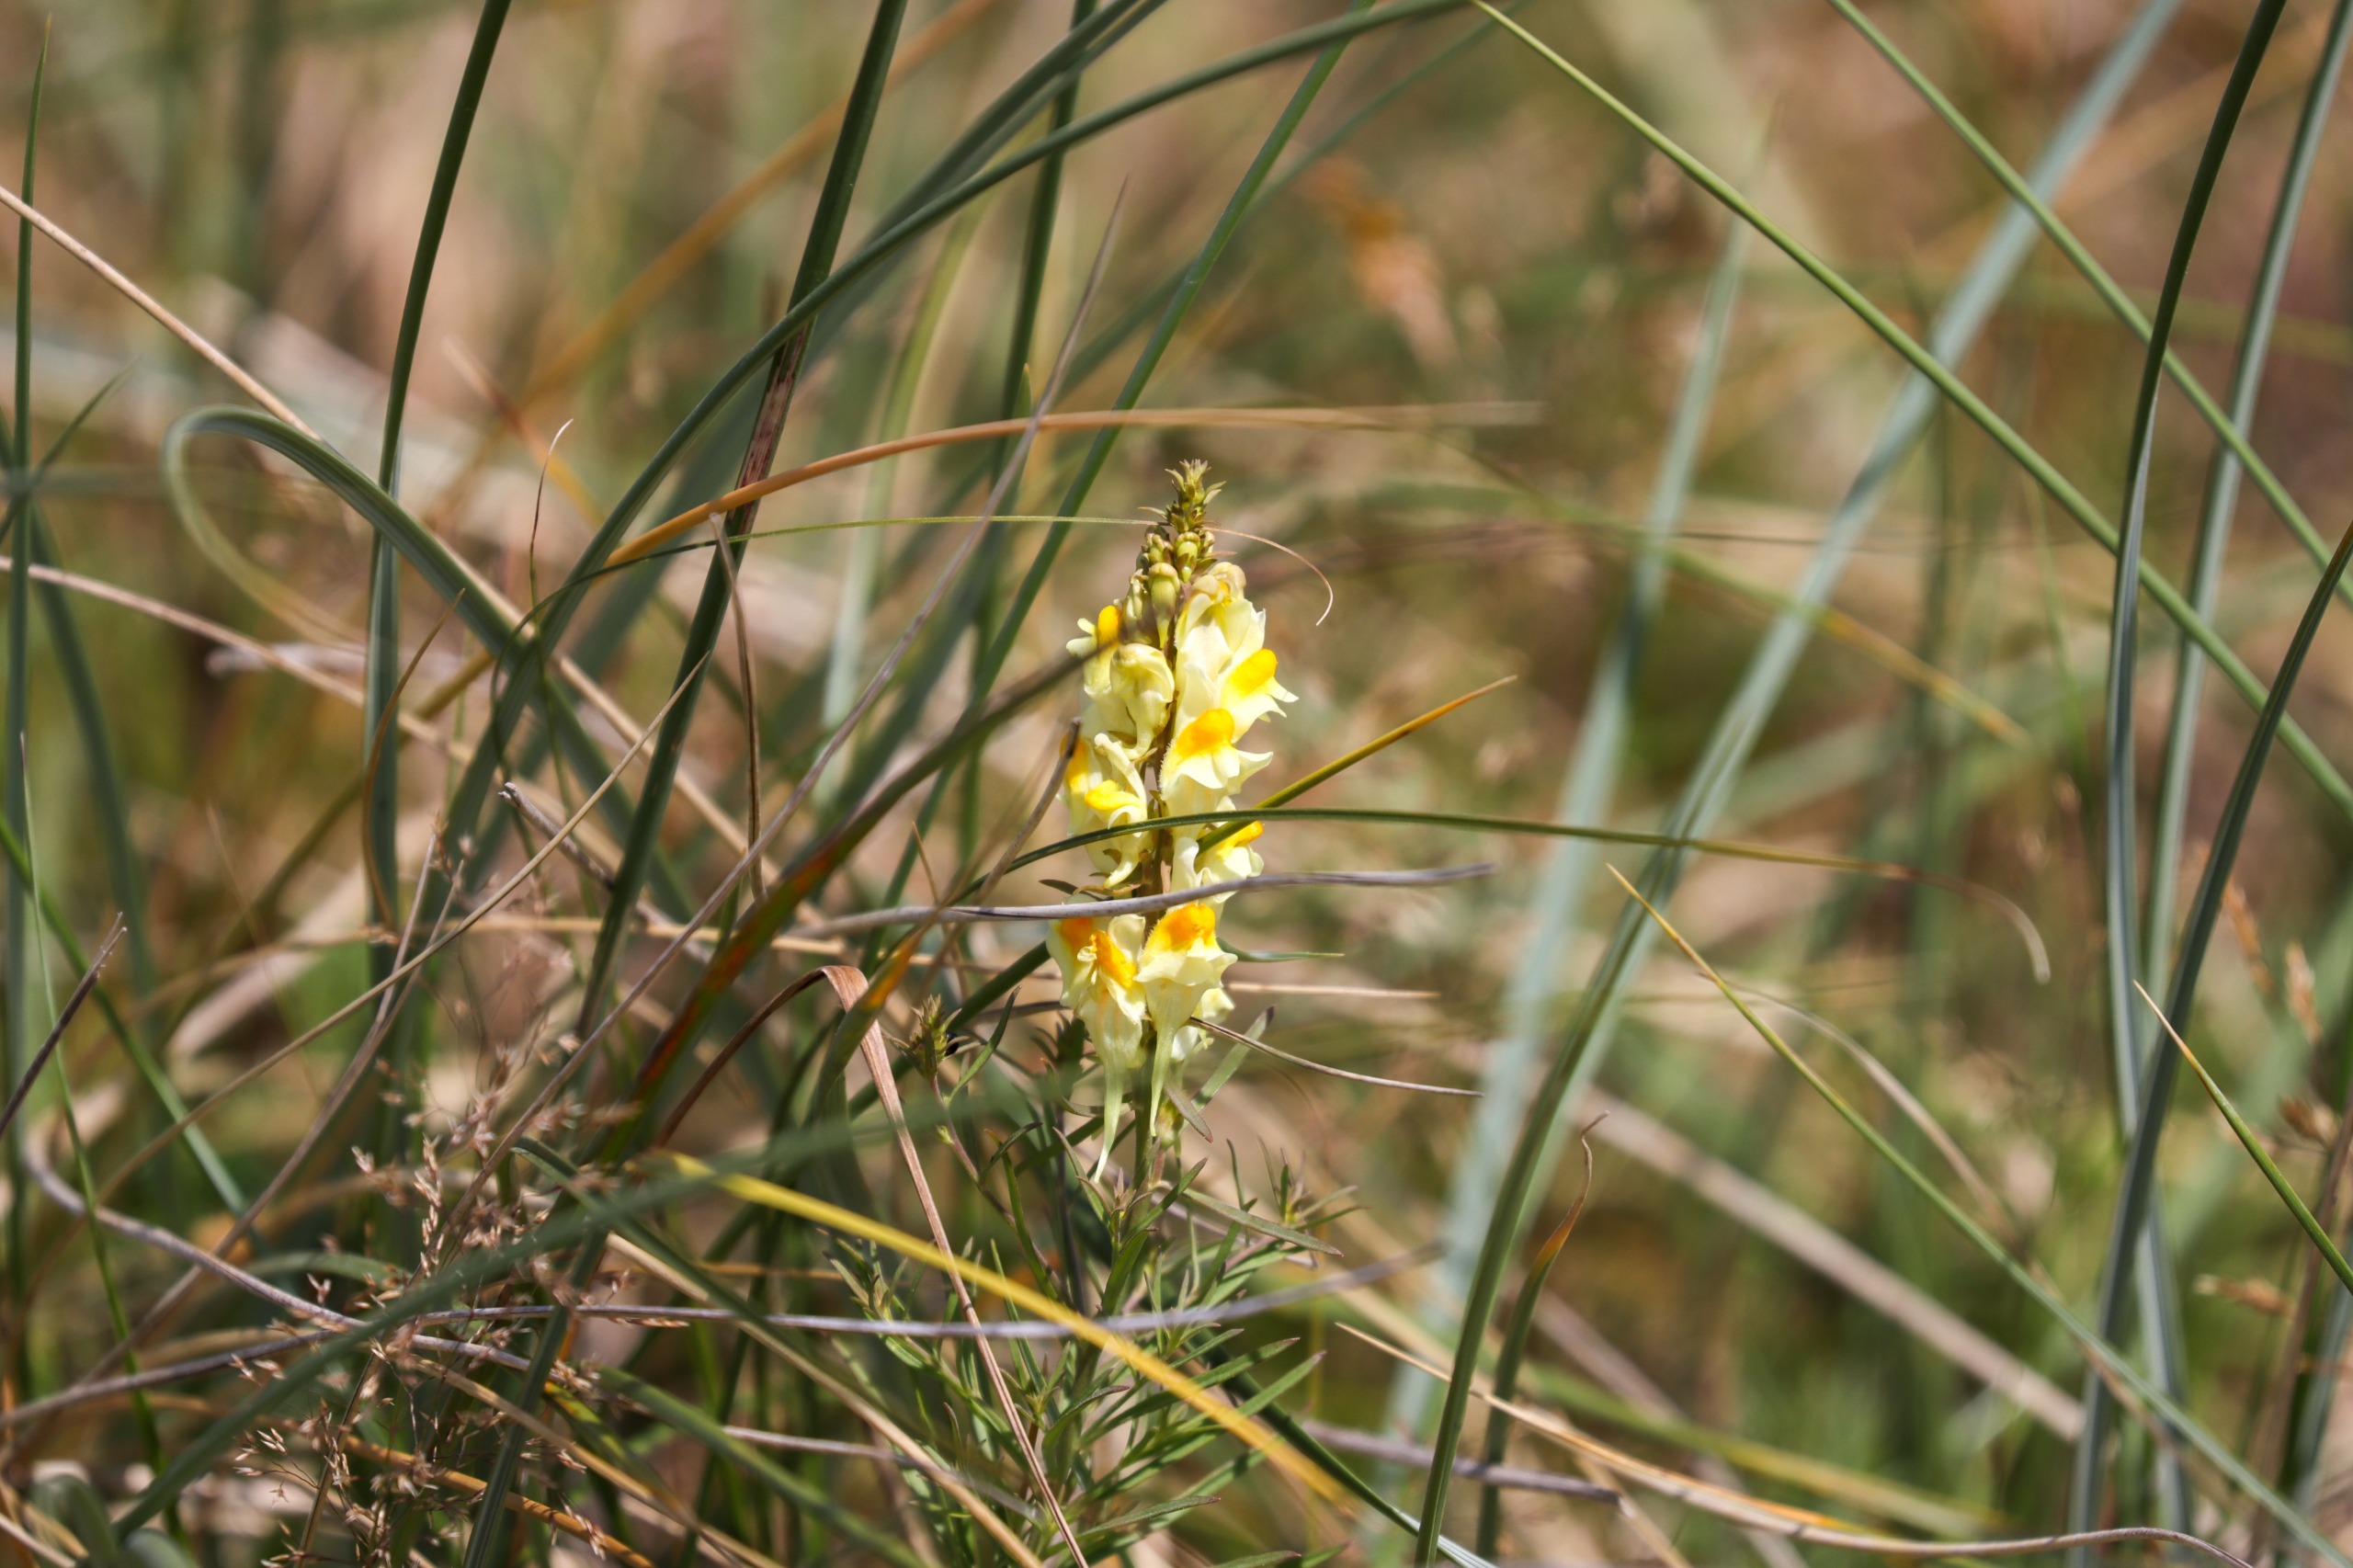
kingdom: Plantae
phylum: Tracheophyta
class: Magnoliopsida
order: Lamiales
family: Plantaginaceae
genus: Linaria
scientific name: Linaria vulgaris
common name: Almindelig torskemund
